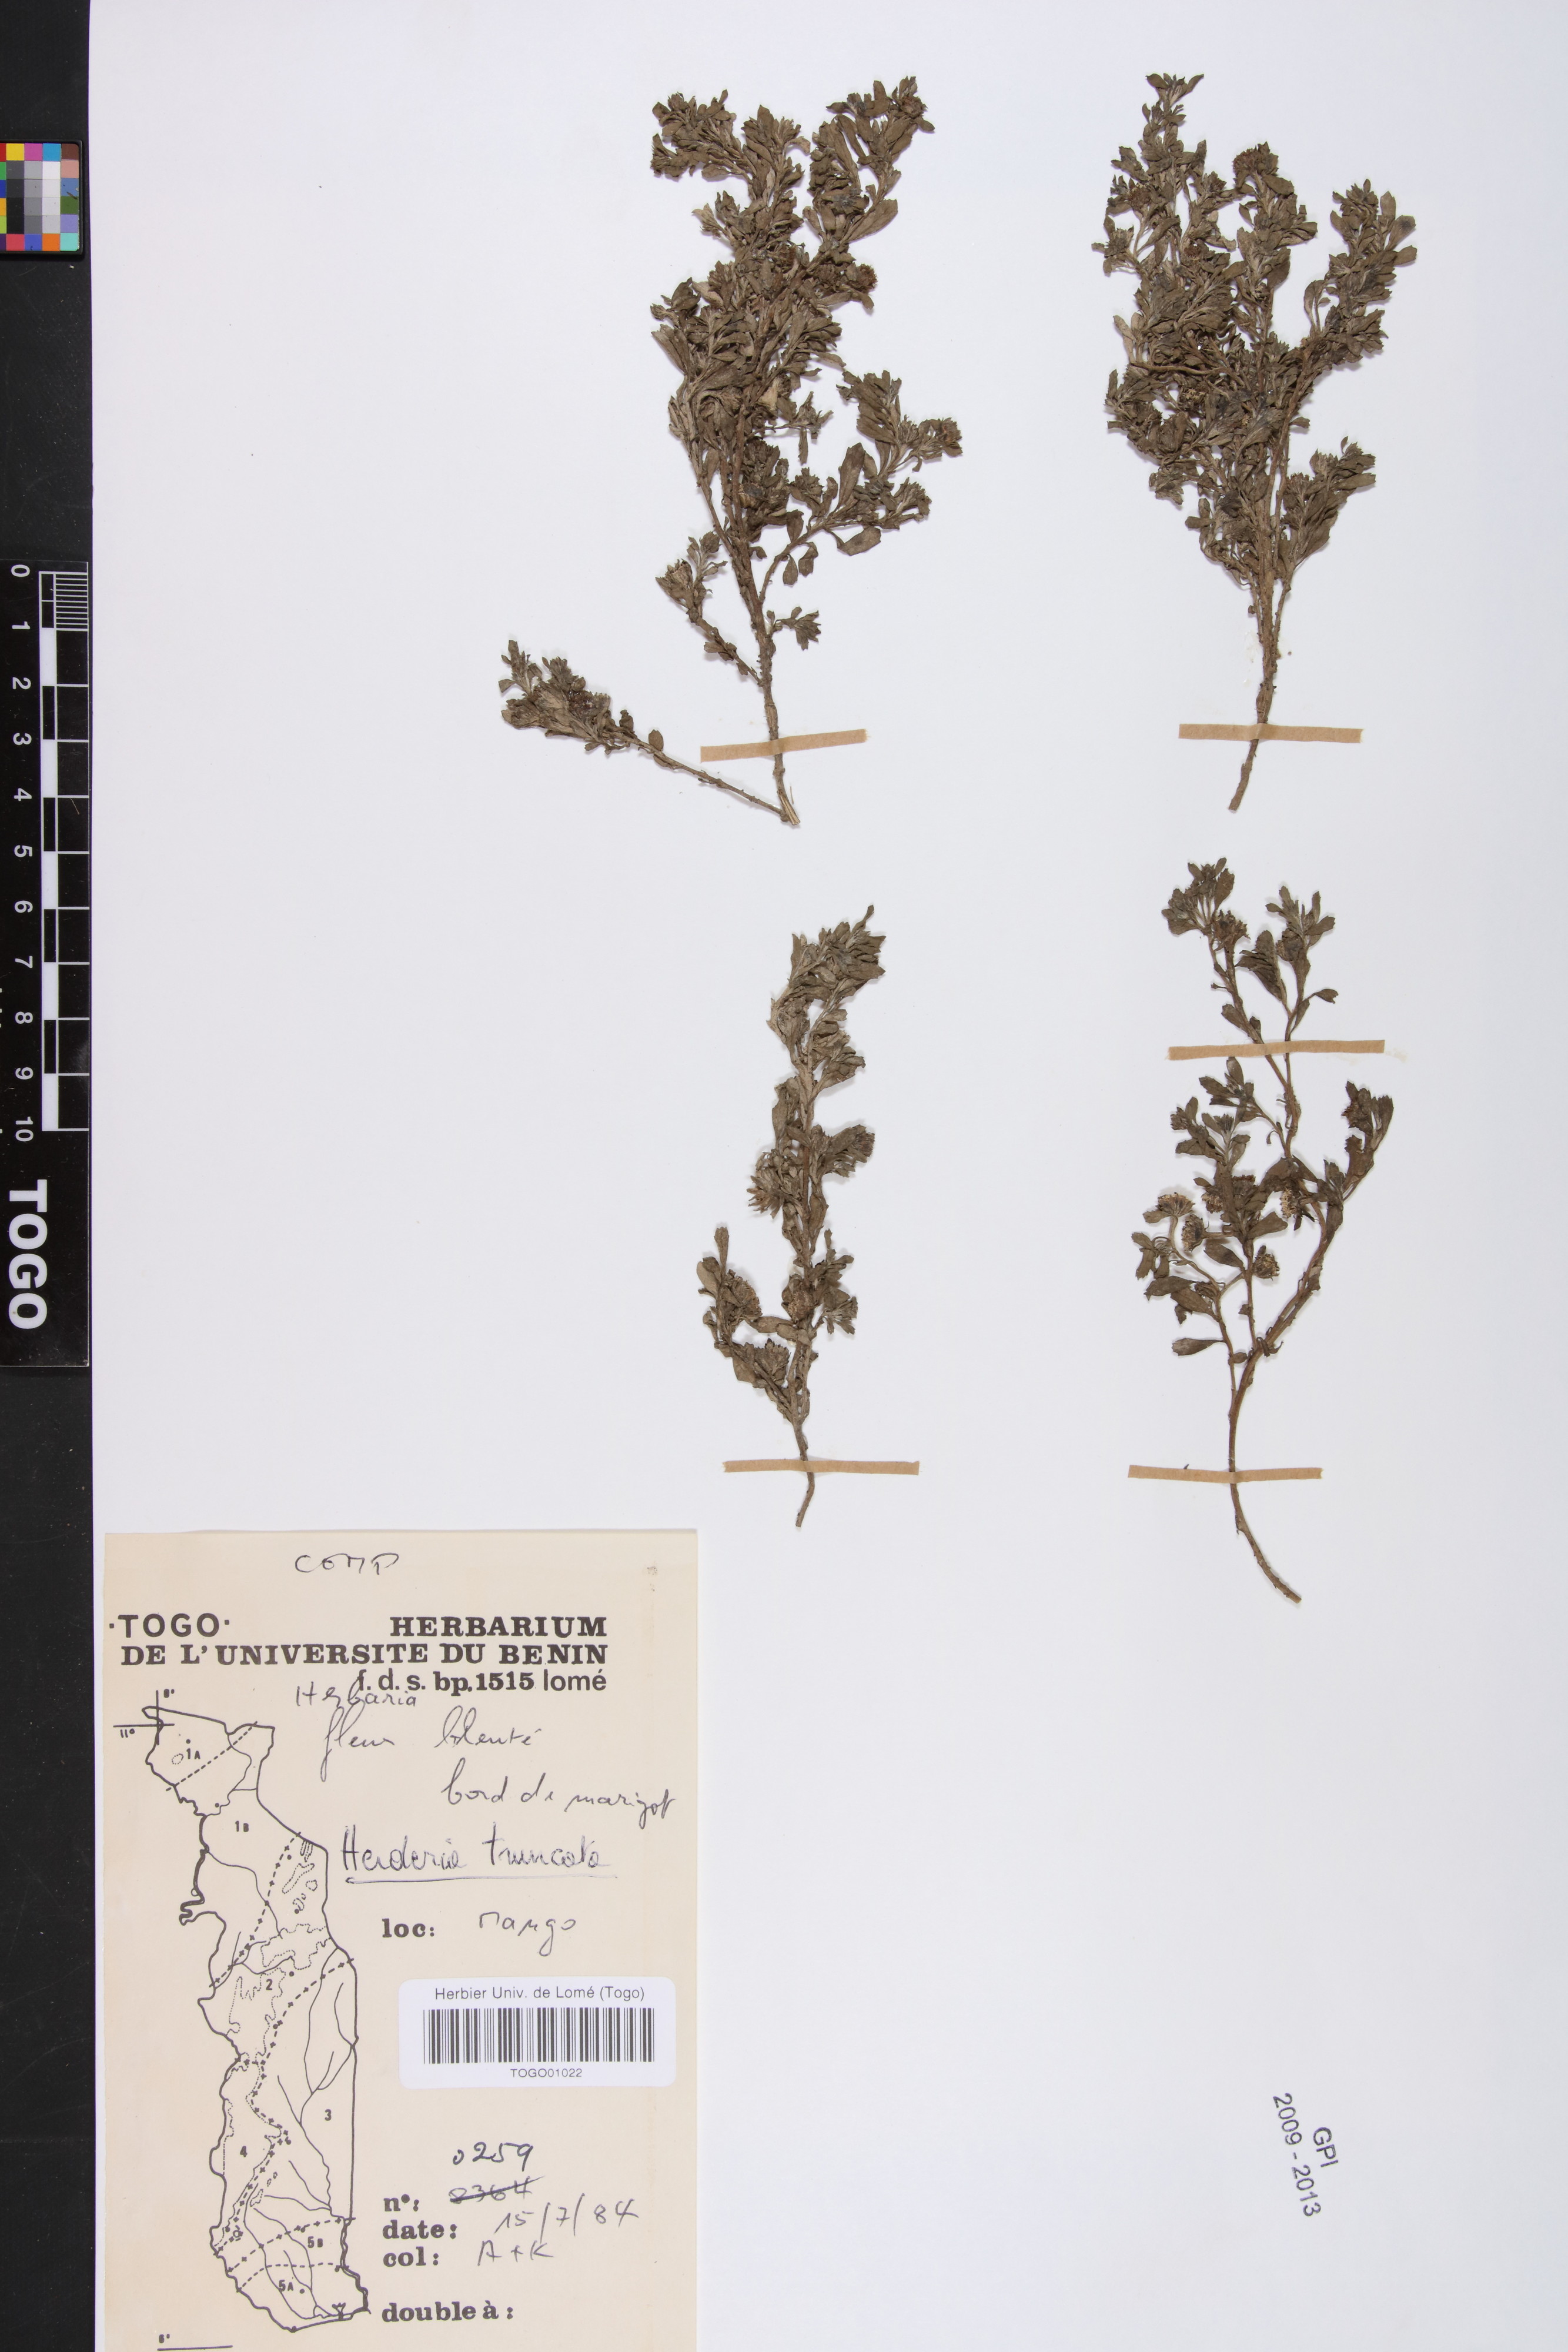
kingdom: Plantae
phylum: Tracheophyta
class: Magnoliopsida
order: Asterales
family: Asteraceae
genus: Herderia
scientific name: Herderia truncata
